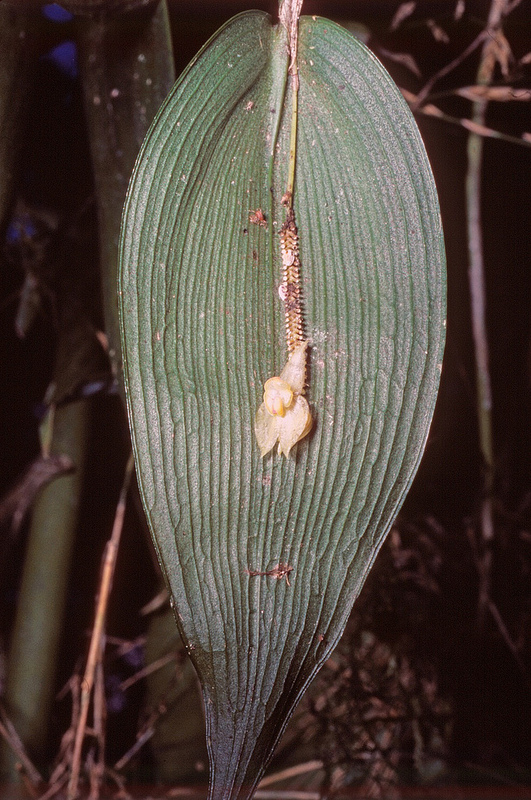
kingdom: Plantae
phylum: Tracheophyta
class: Liliopsida
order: Asparagales
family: Orchidaceae
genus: Lepanthes
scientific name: Lepanthes magnifica
